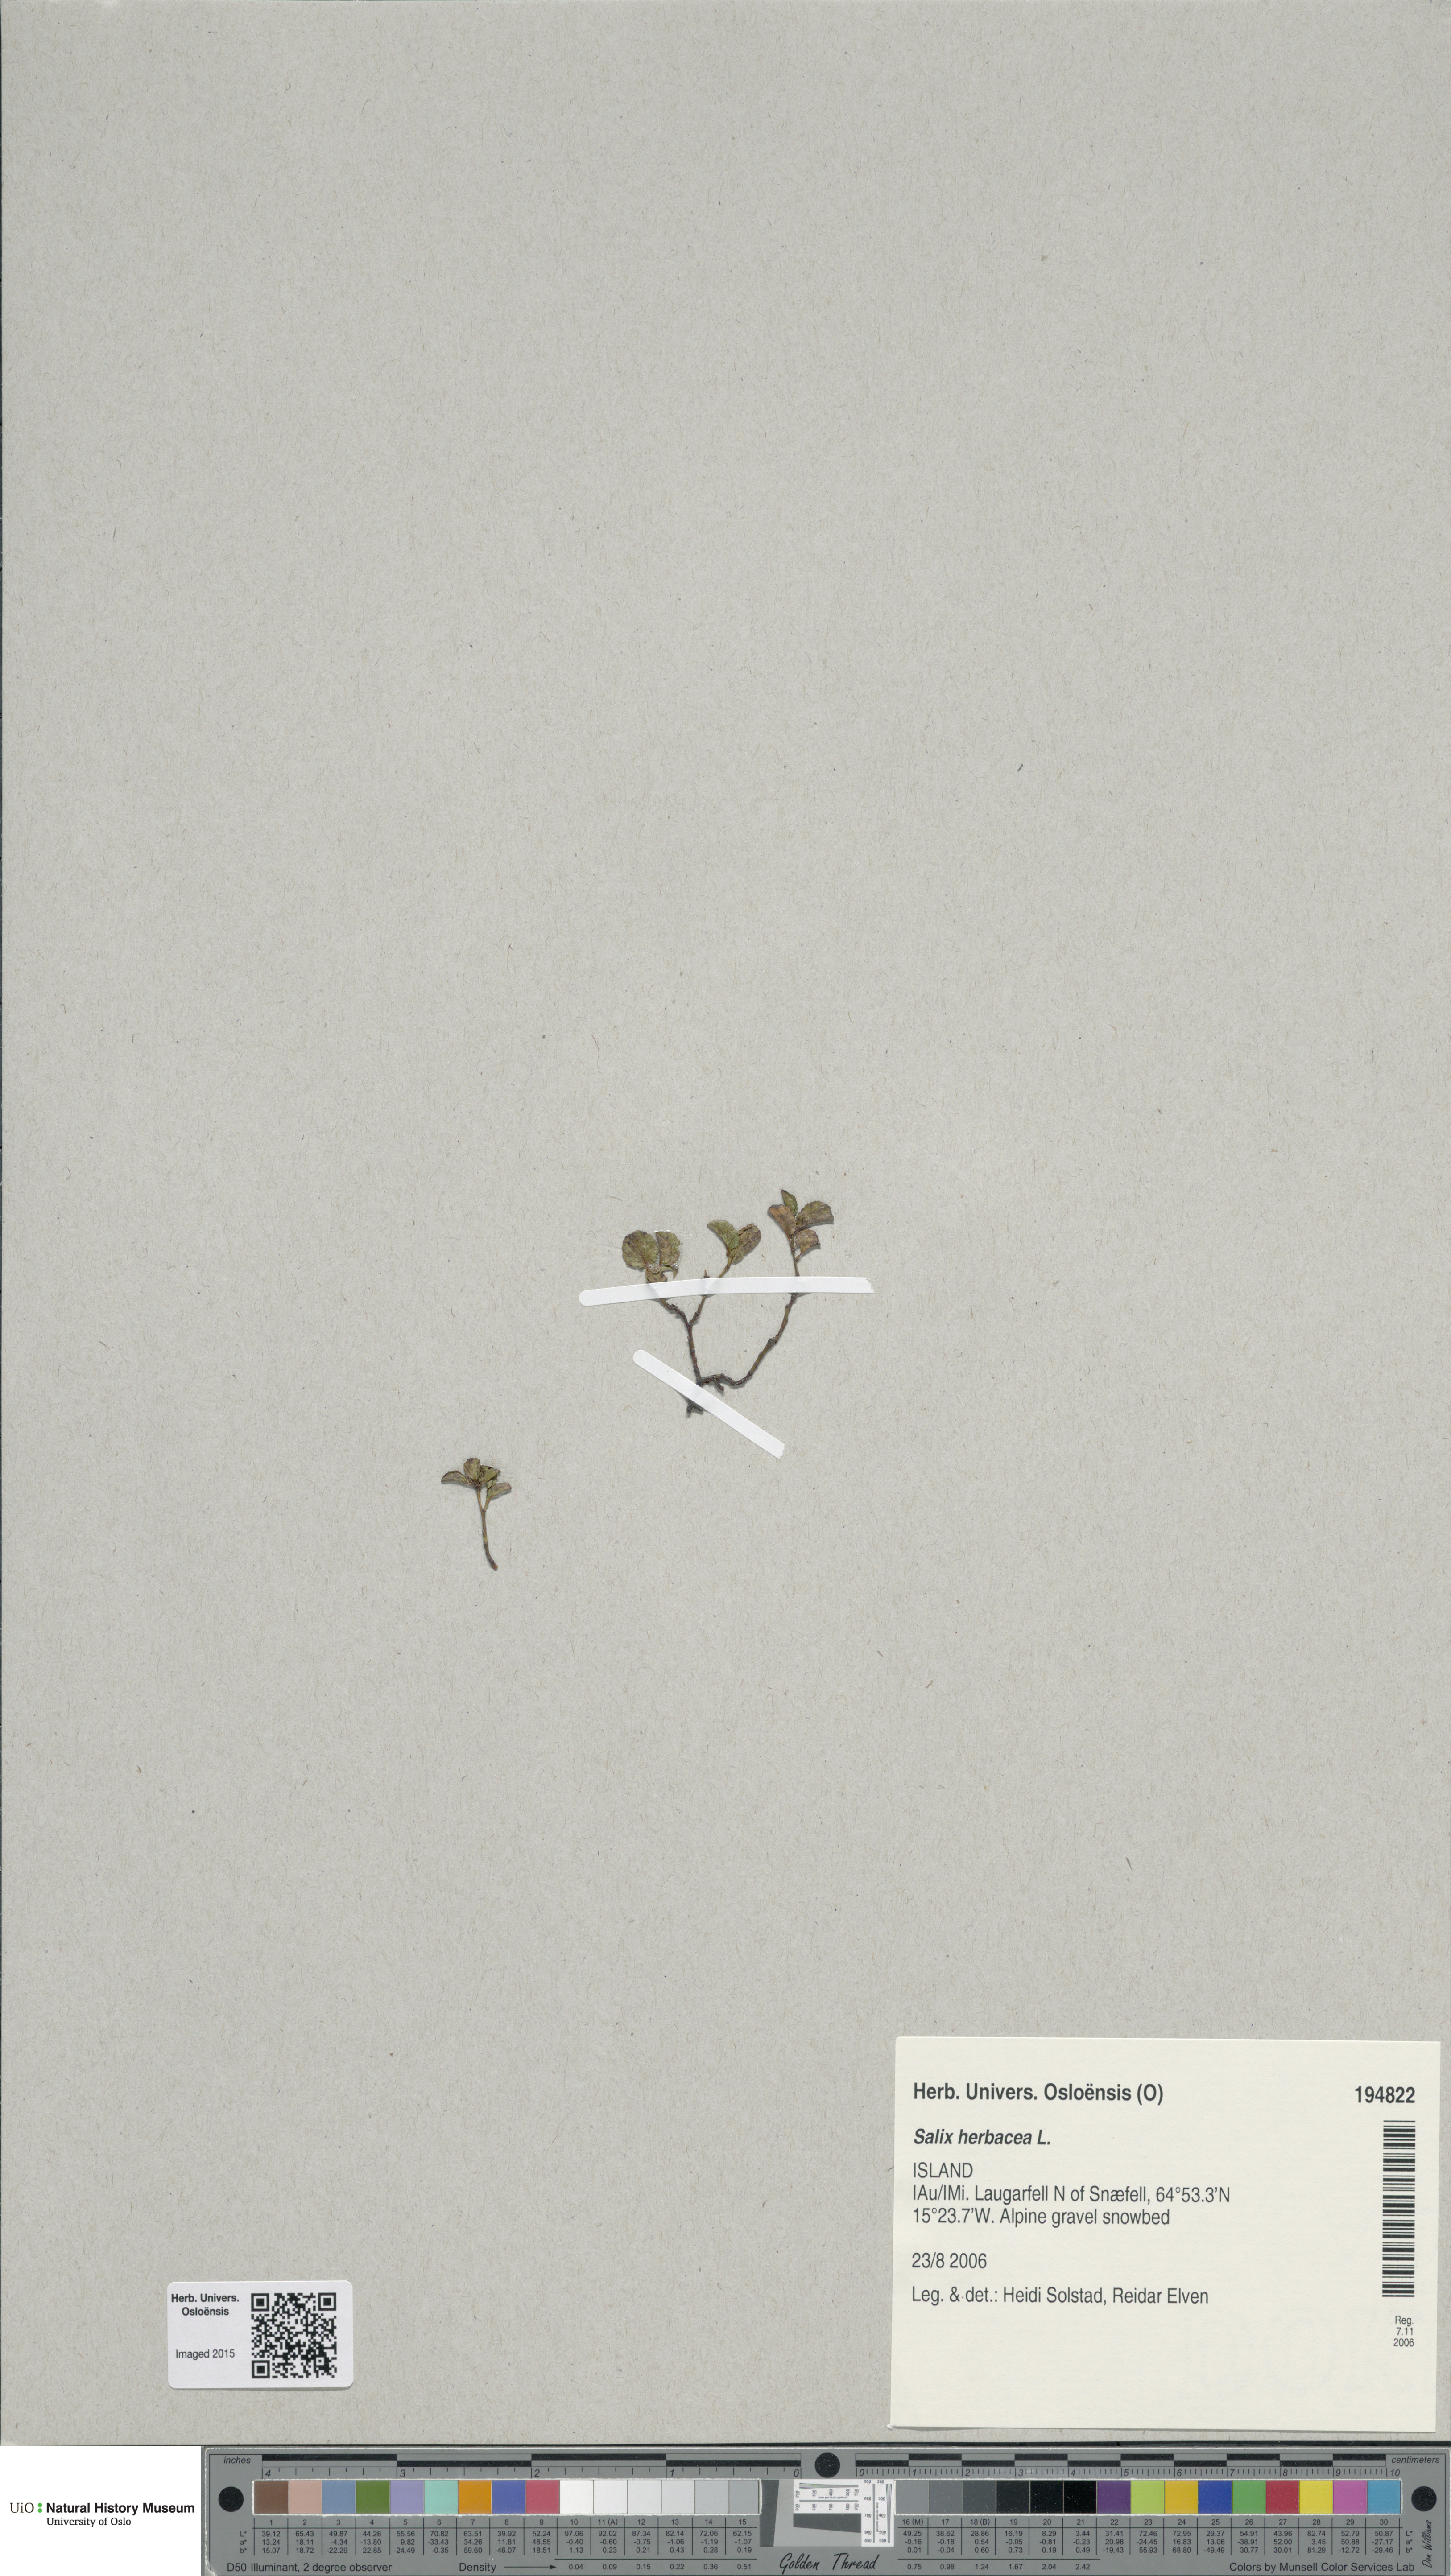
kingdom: Plantae
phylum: Tracheophyta
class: Magnoliopsida
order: Malpighiales
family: Salicaceae
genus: Salix
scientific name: Salix herbacea
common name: Dwarf willow
